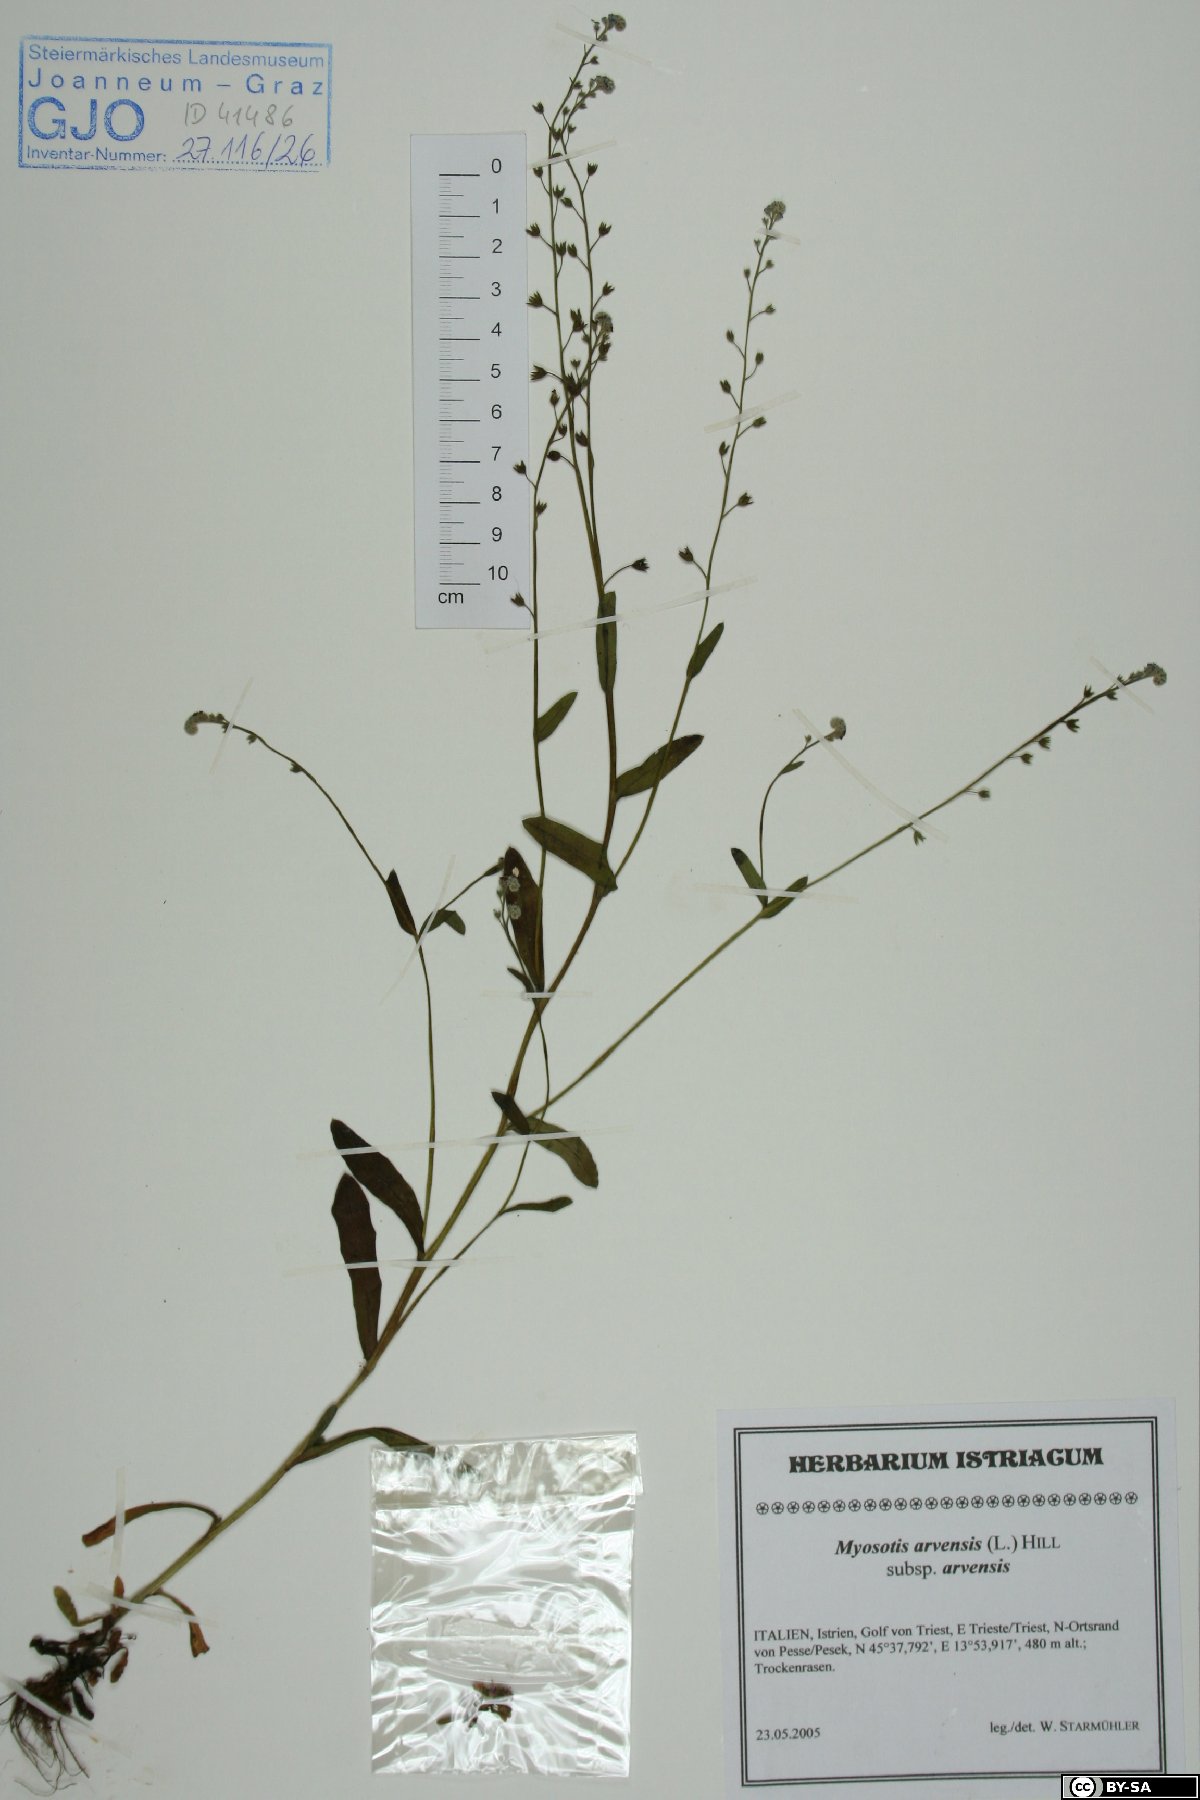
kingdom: Plantae
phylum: Tracheophyta
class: Magnoliopsida
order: Boraginales
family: Boraginaceae
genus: Myosotis
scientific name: Myosotis arvensis
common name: Field forget-me-not
